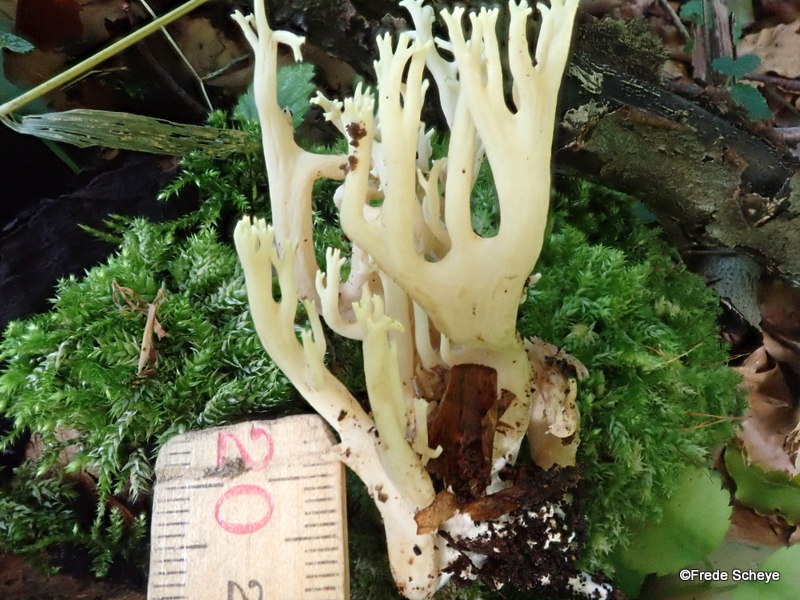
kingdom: Fungi
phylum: Basidiomycota
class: Agaricomycetes
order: Gomphales
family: Gomphaceae
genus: Ramaria
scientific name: Ramaria stricta
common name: rank koralsvamp
